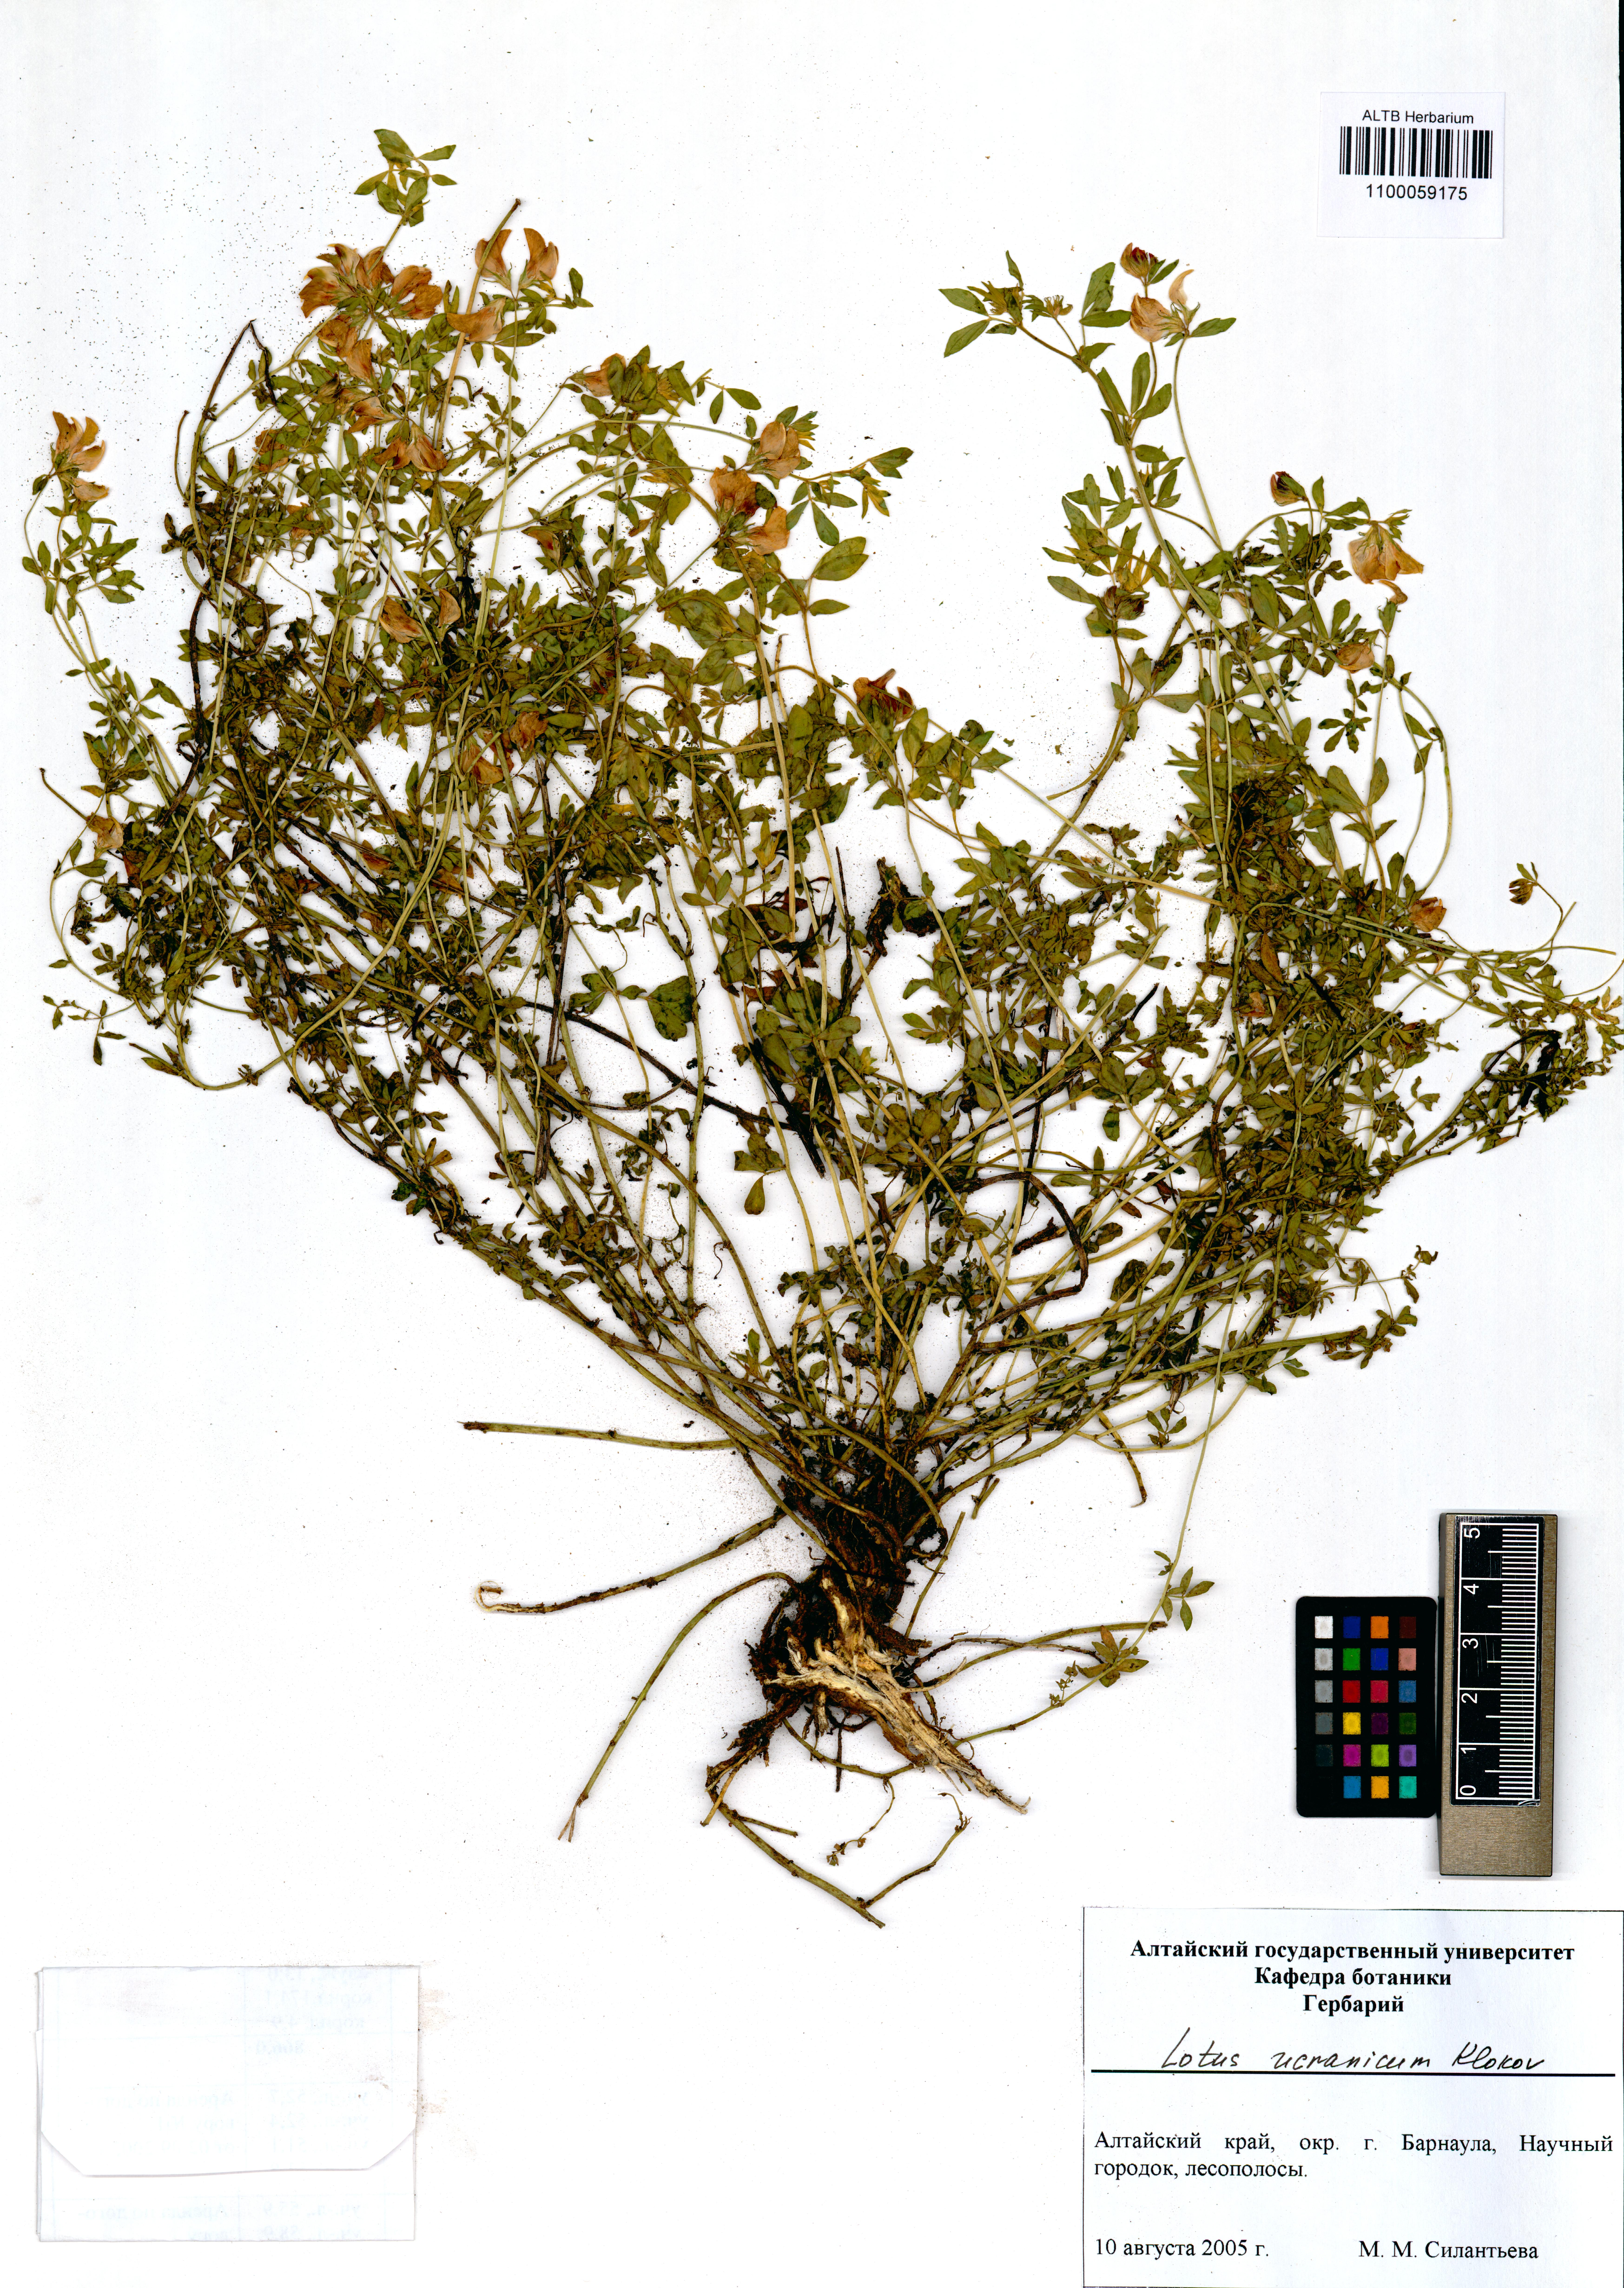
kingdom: Plantae
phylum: Tracheophyta
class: Magnoliopsida
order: Fabales
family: Fabaceae
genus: Lotus
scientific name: Lotus ucrainicus
